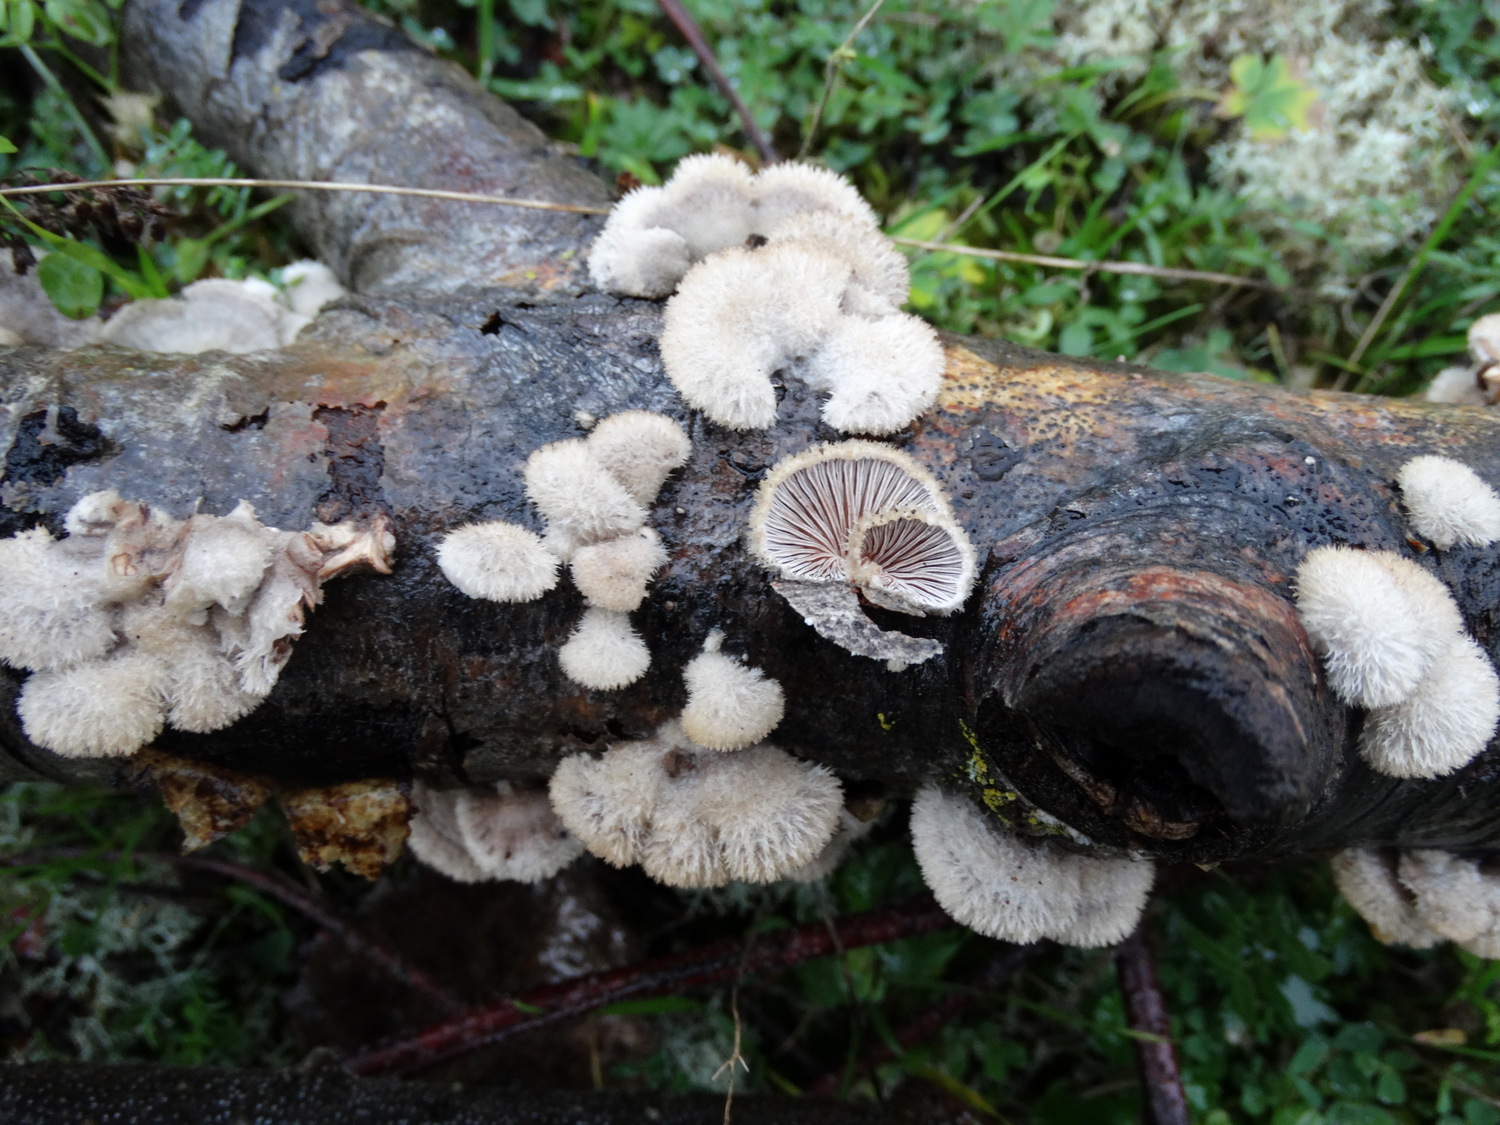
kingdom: Fungi
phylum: Basidiomycota
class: Agaricomycetes
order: Agaricales
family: Schizophyllaceae
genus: Schizophyllum
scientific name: Schizophyllum commune
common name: kløvblad
